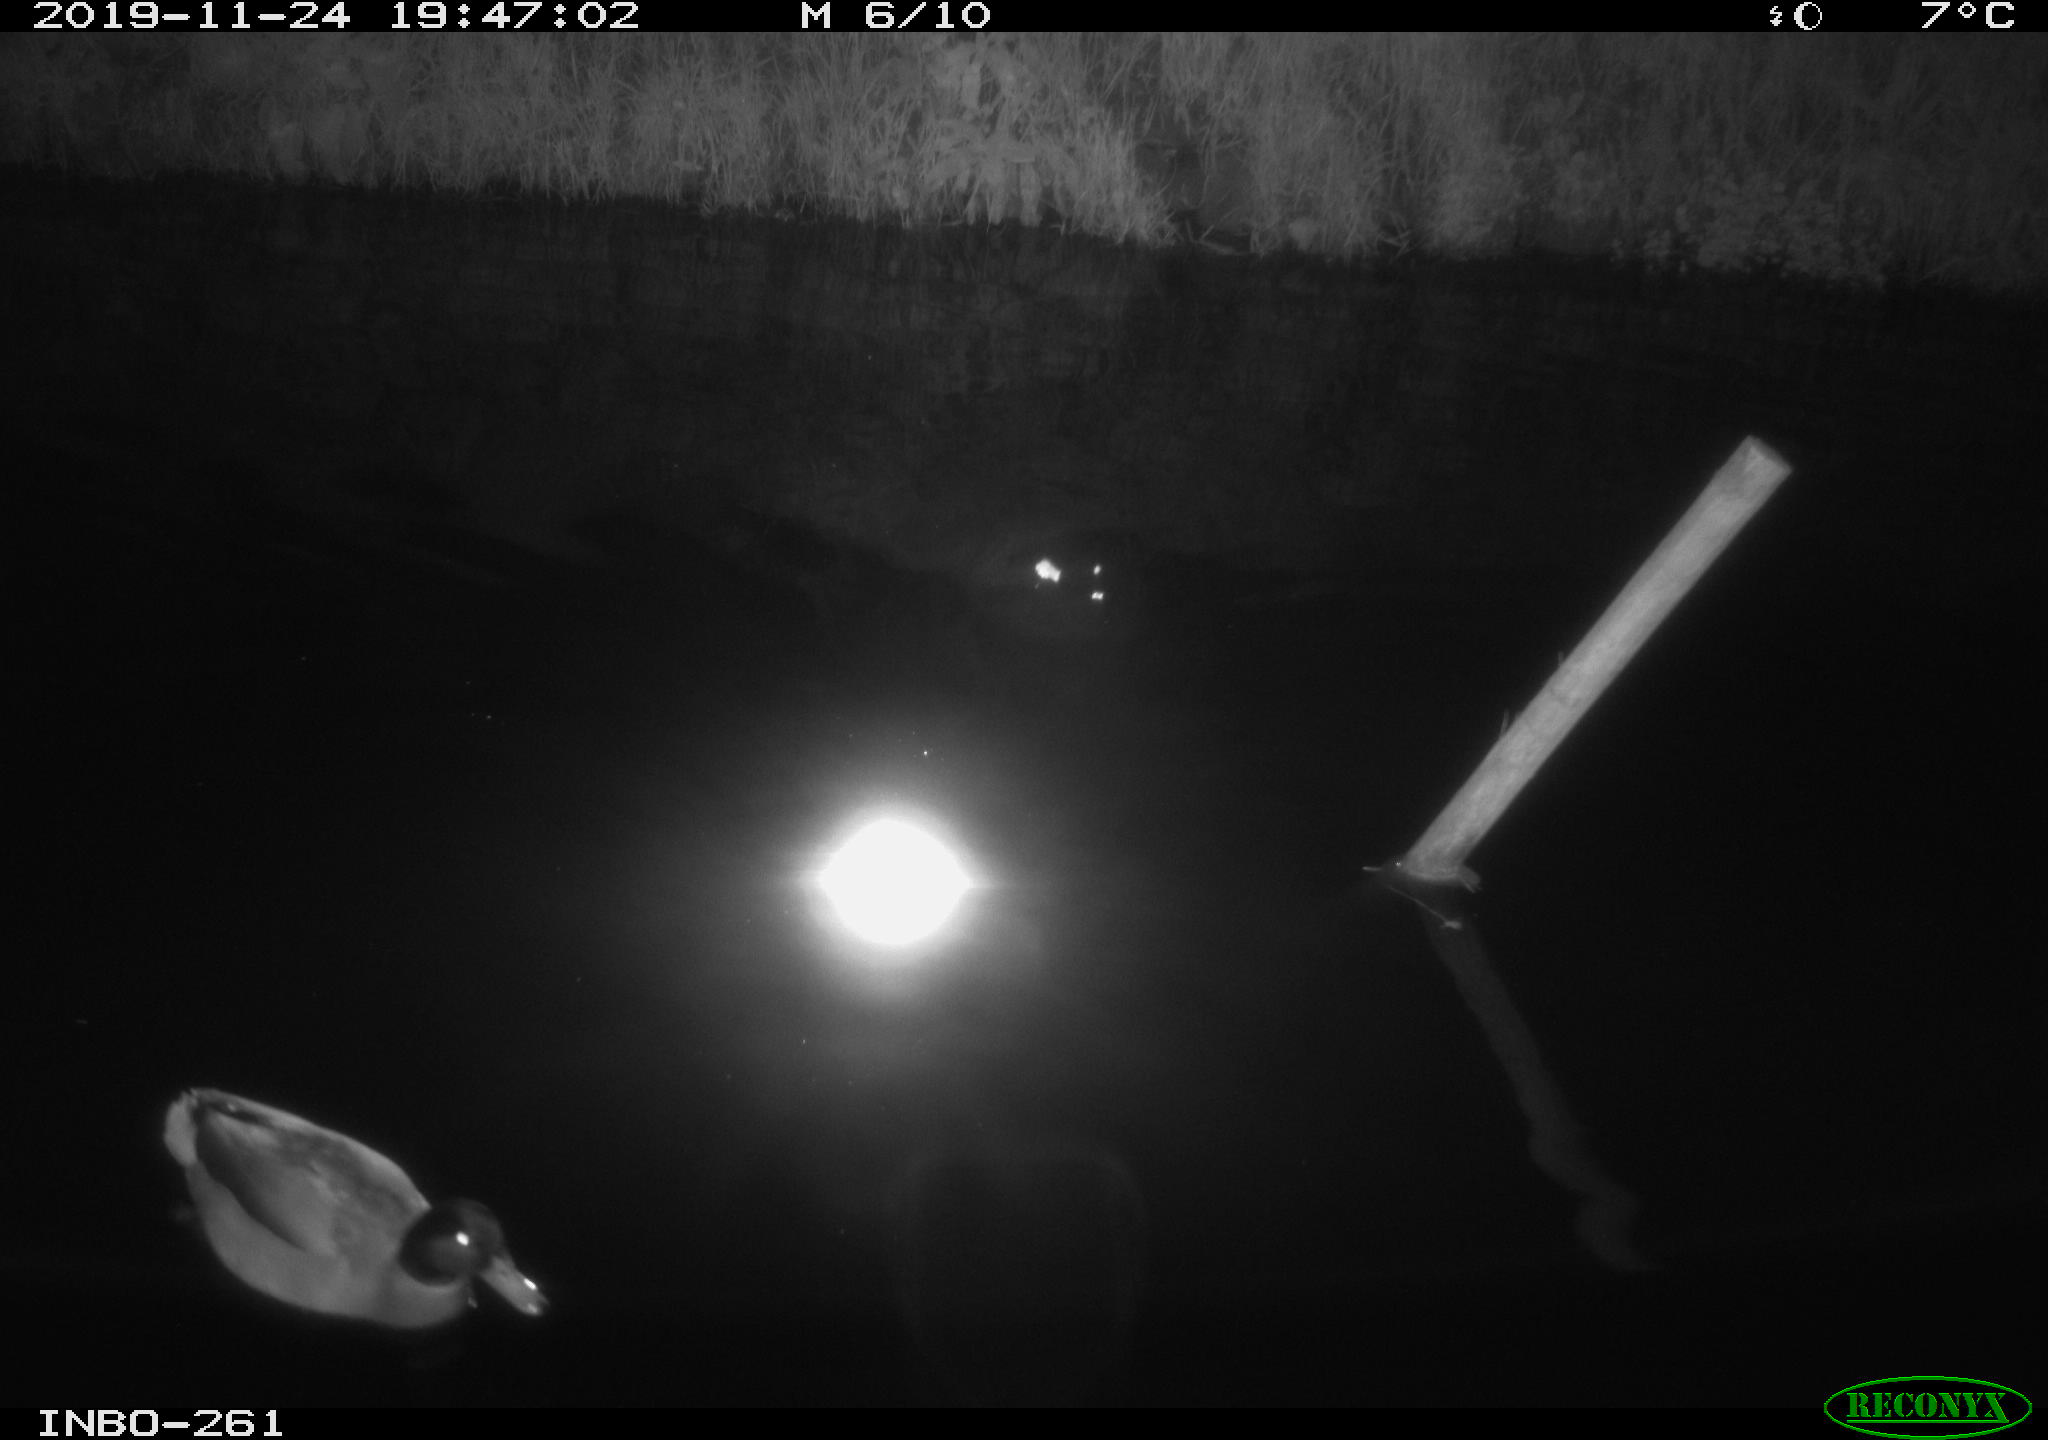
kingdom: Animalia
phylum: Chordata
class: Aves
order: Anseriformes
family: Anatidae
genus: Anas
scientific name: Anas platyrhynchos
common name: Mallard
